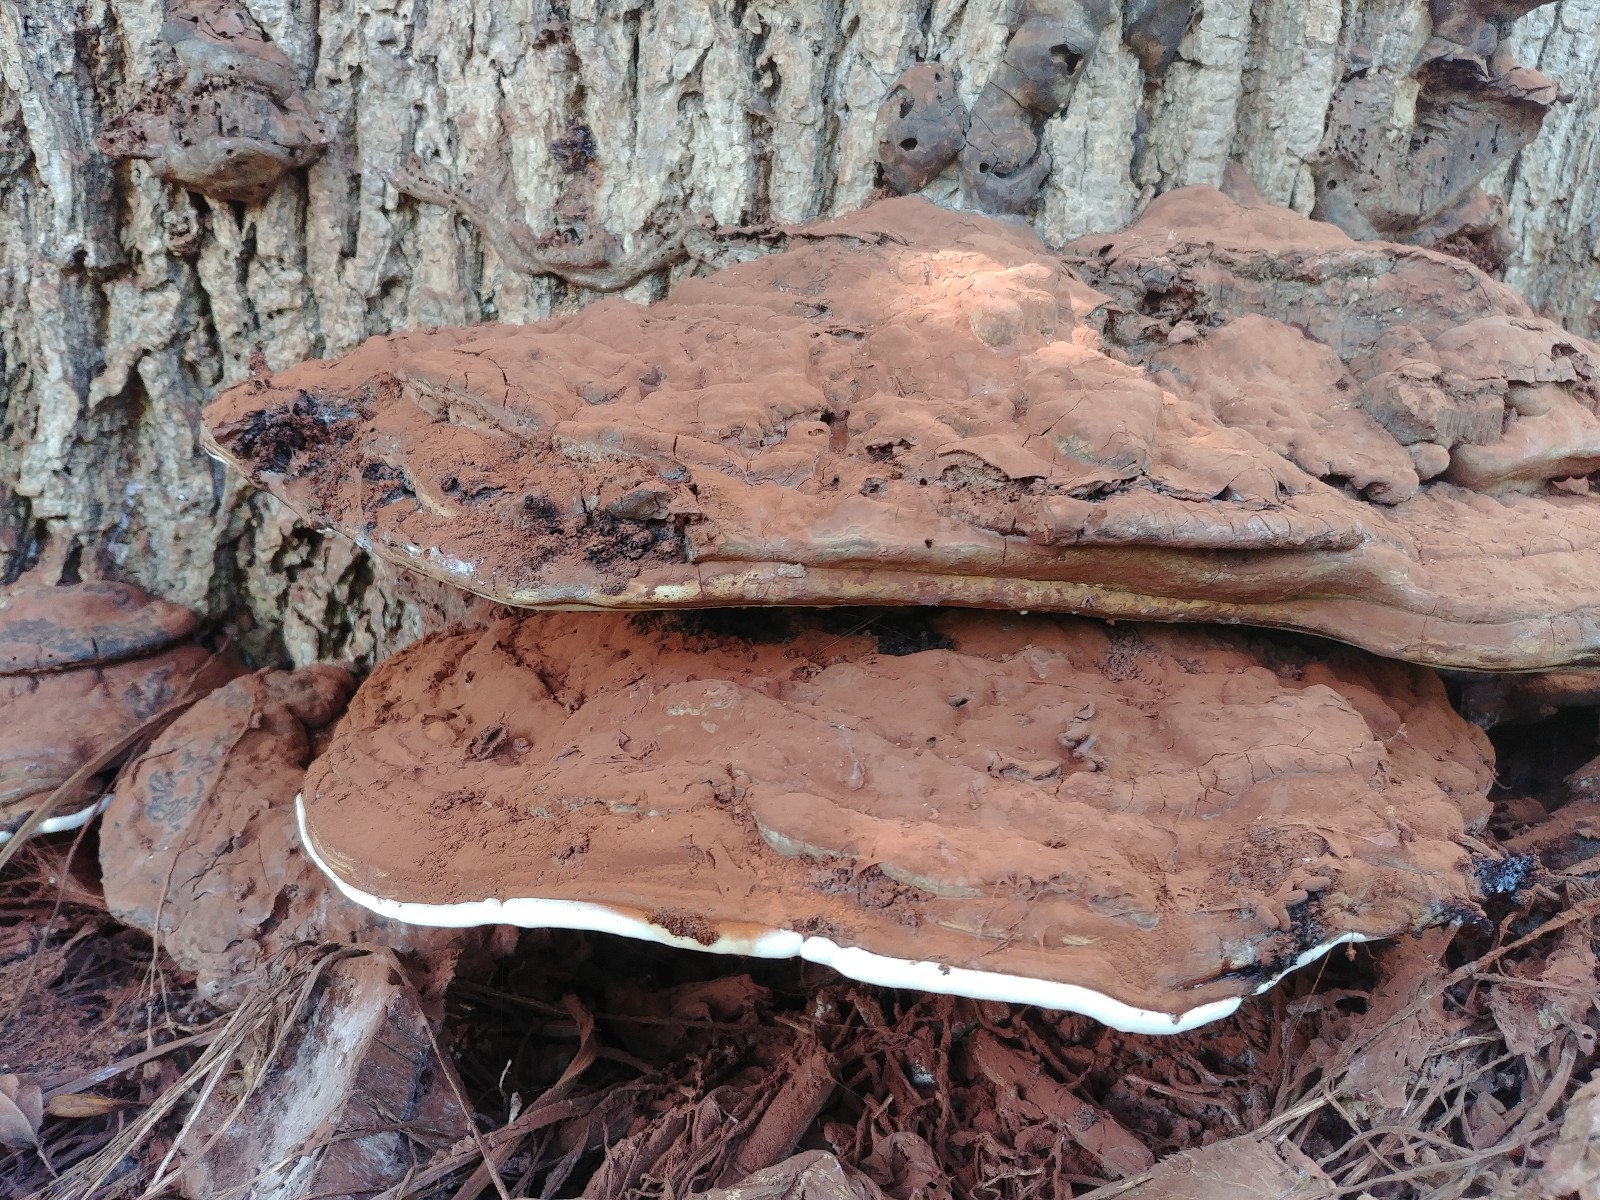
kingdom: Fungi
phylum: Basidiomycota
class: Agaricomycetes
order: Polyporales
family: Polyporaceae
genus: Ganoderma
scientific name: Ganoderma applanatum
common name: flad lakporesvamp
